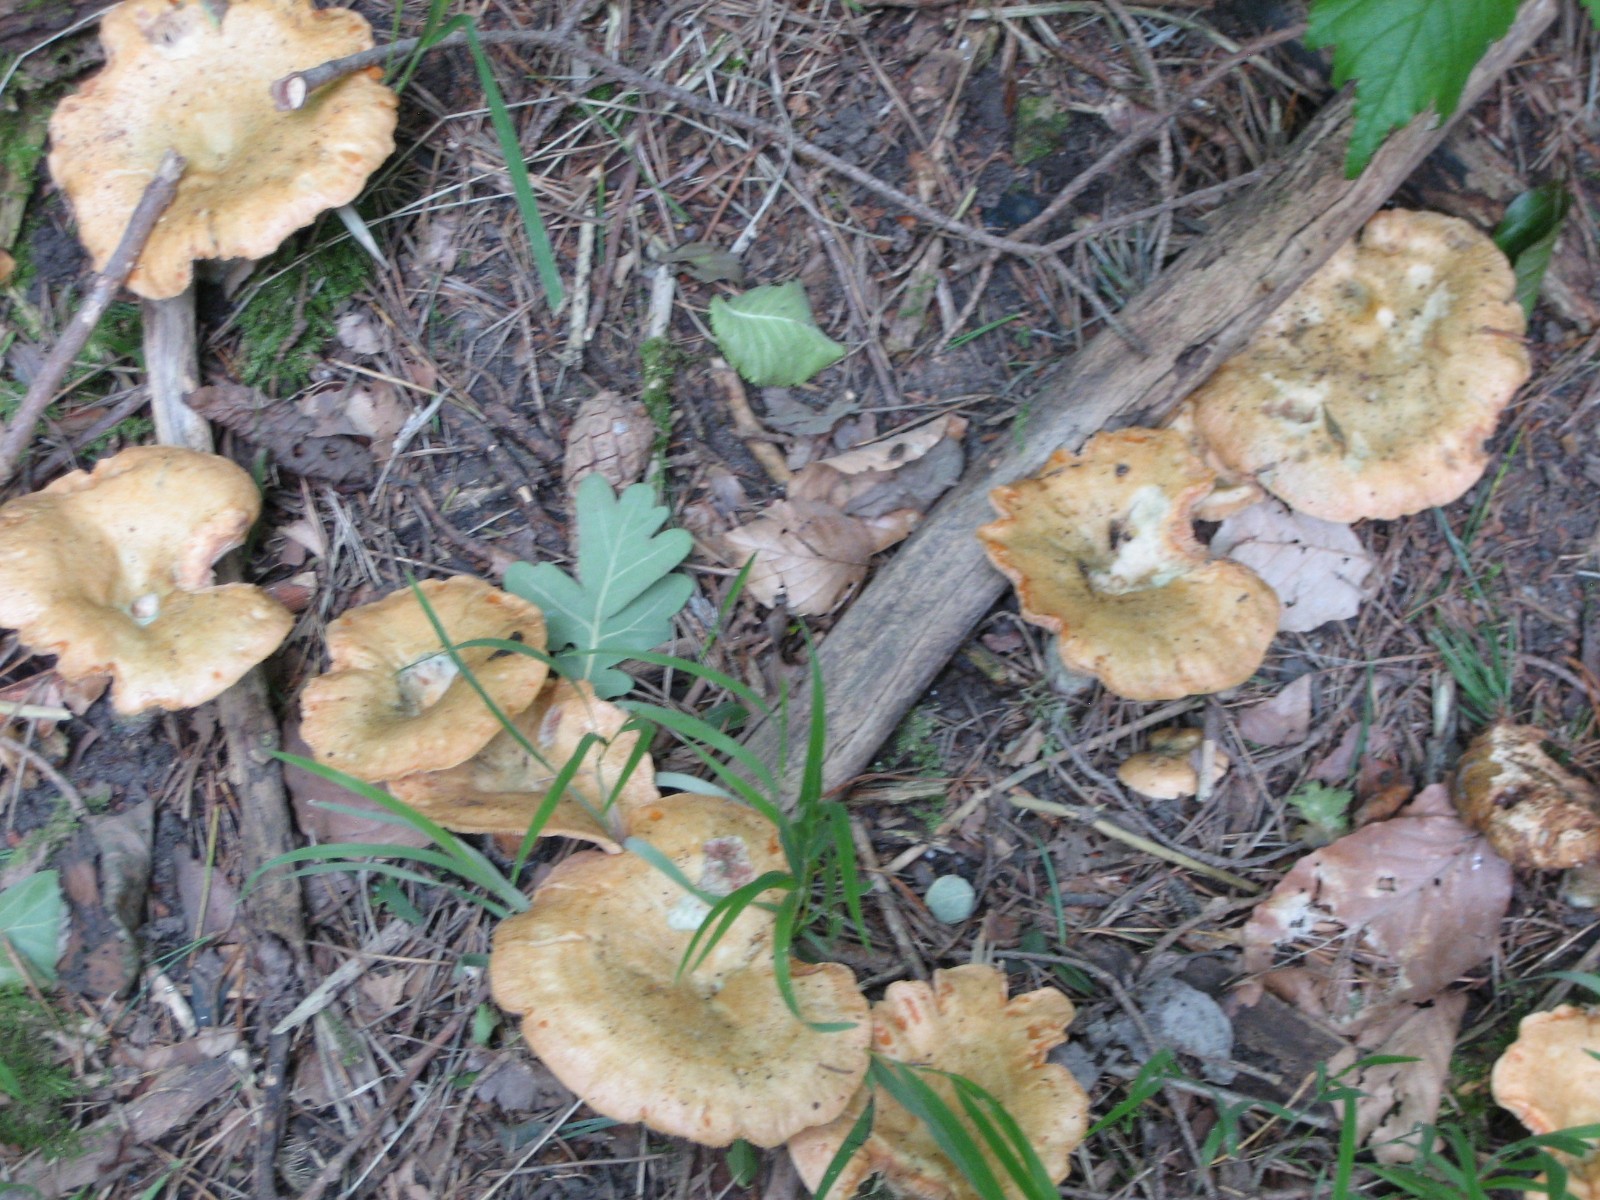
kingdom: Fungi
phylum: Basidiomycota
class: Agaricomycetes
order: Russulales
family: Russulaceae
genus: Lactarius
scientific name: Lactarius deterrimus
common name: gran-mælkehat
